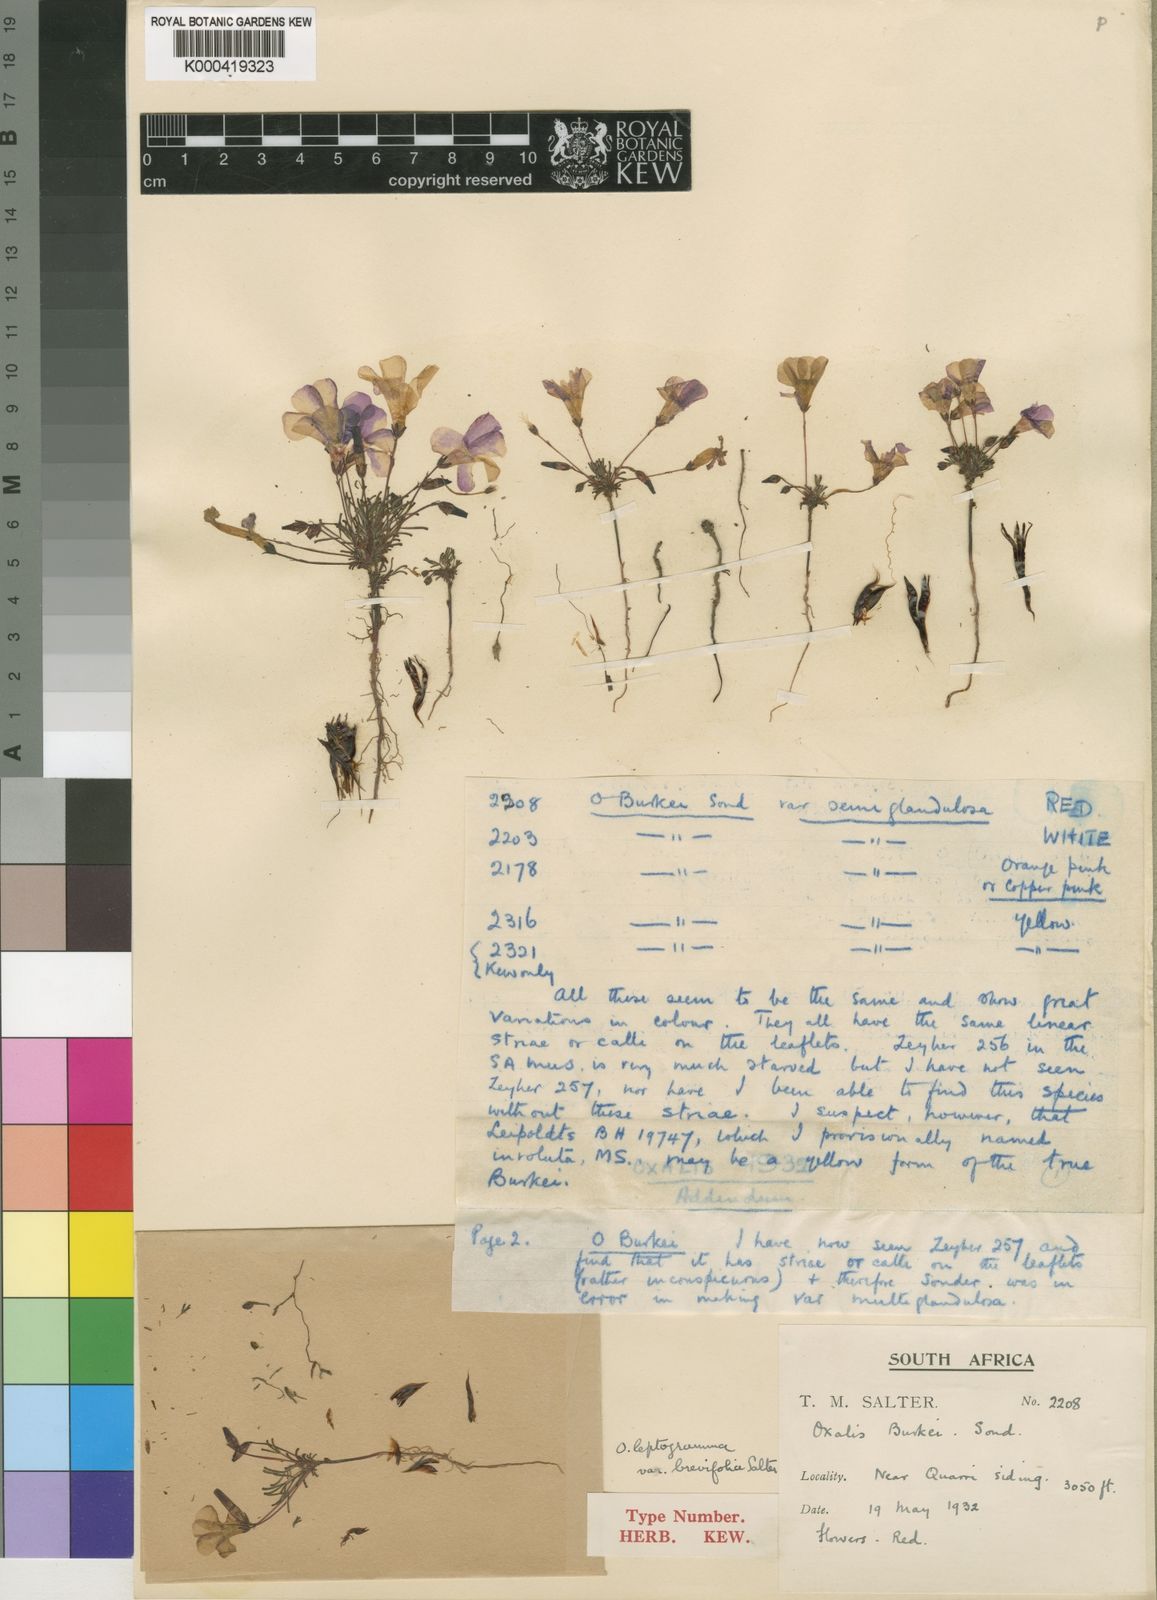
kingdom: Plantae
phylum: Tracheophyta
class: Magnoliopsida
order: Oxalidales
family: Oxalidaceae
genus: Oxalis
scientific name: Oxalis leptogramma
